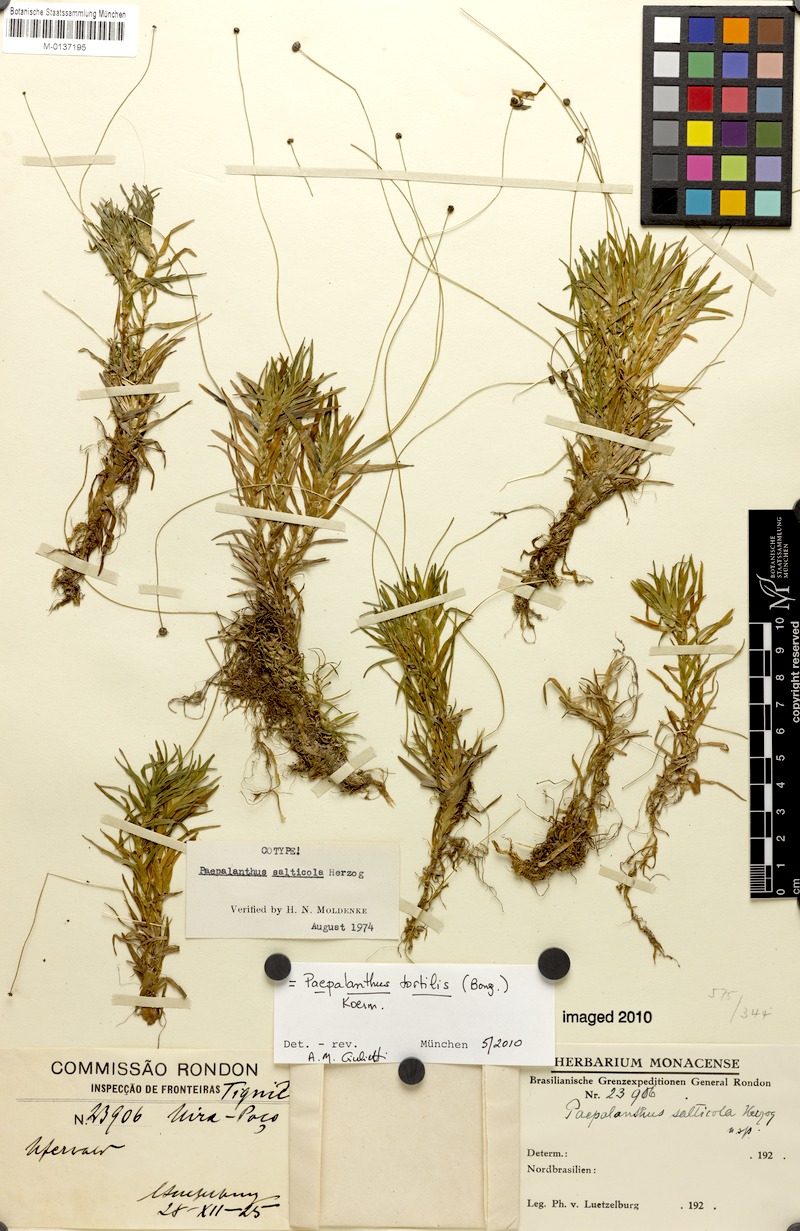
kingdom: Plantae
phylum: Tracheophyta
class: Liliopsida
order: Poales
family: Eriocaulaceae
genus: Paepalanthus
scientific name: Paepalanthus tortilis
